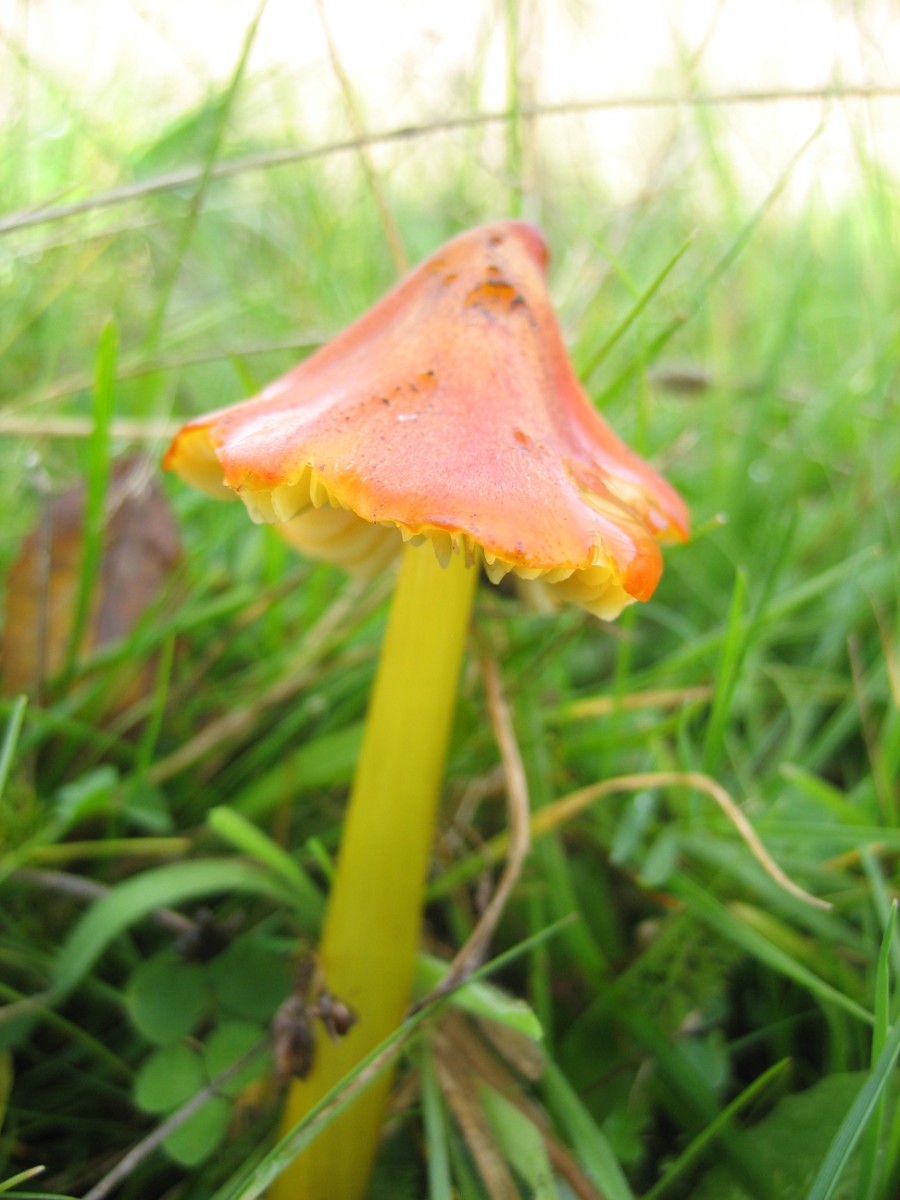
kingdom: Fungi
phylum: Basidiomycota
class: Agaricomycetes
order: Agaricales
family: Hygrophoraceae
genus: Hygrocybe
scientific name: Hygrocybe conica
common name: kegle-vokshat
